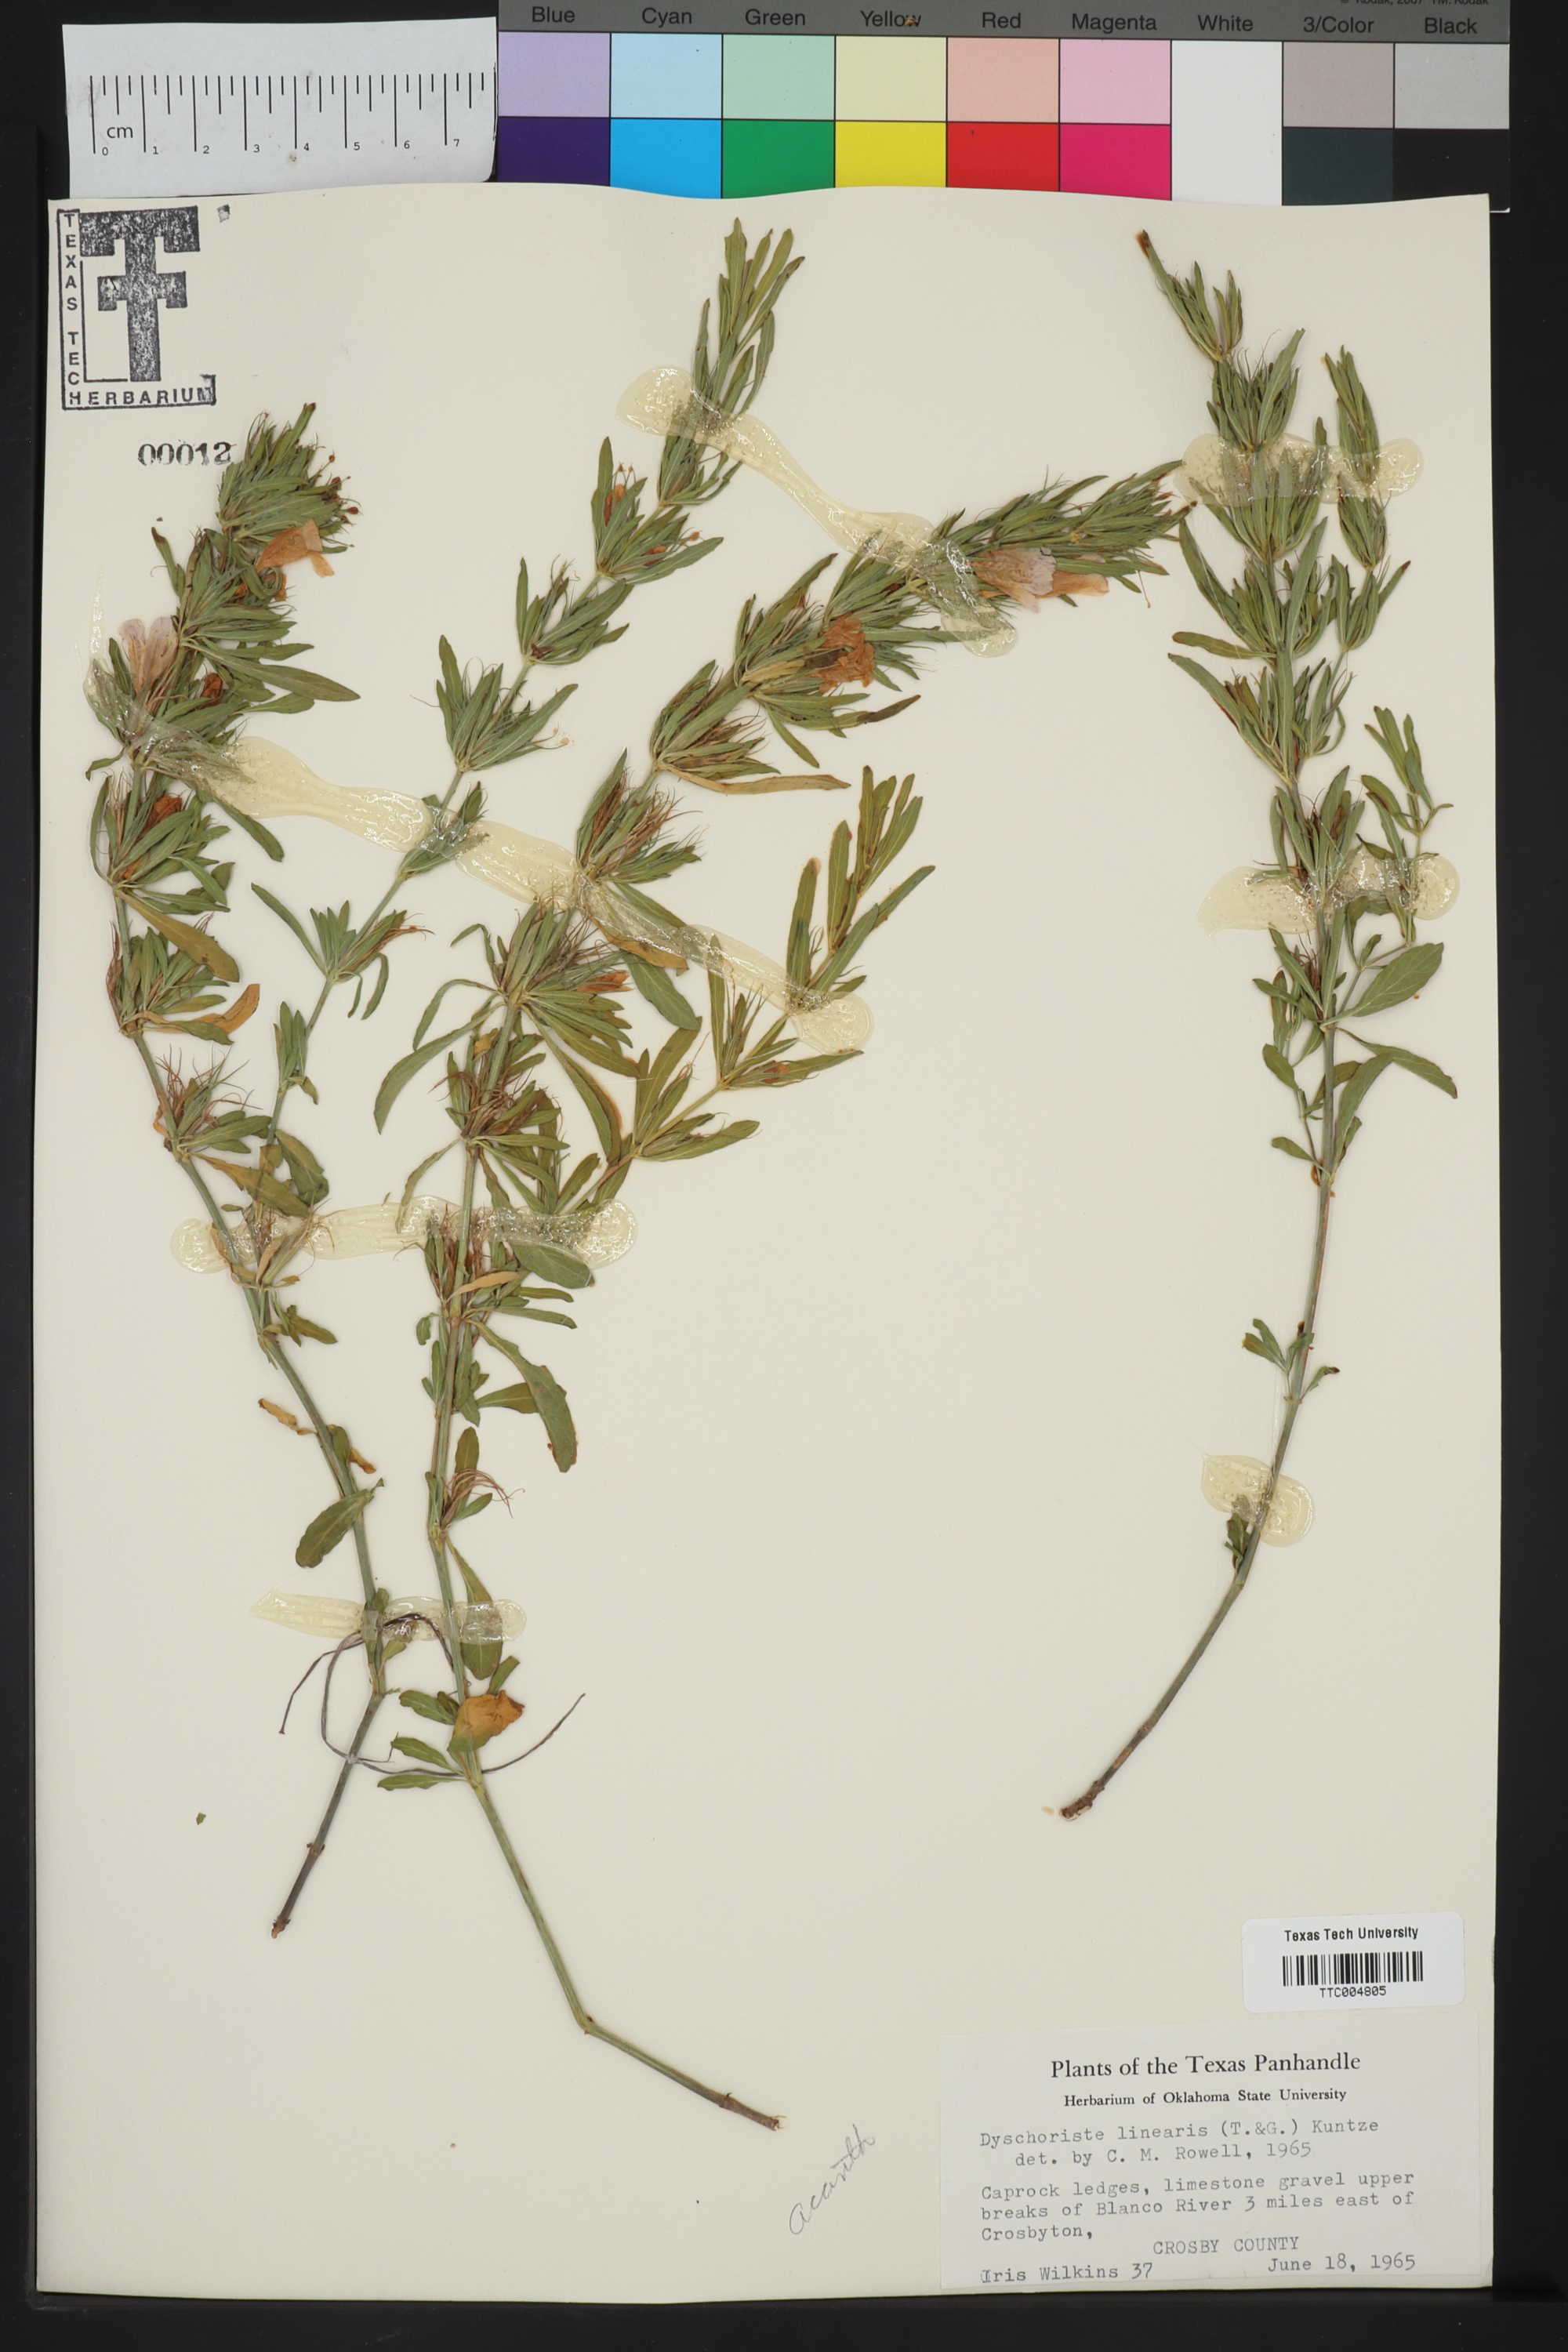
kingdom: Plantae
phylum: Tracheophyta
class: Magnoliopsida
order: Lamiales
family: Acanthaceae
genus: Dyschoriste
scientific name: Dyschoriste linearis
